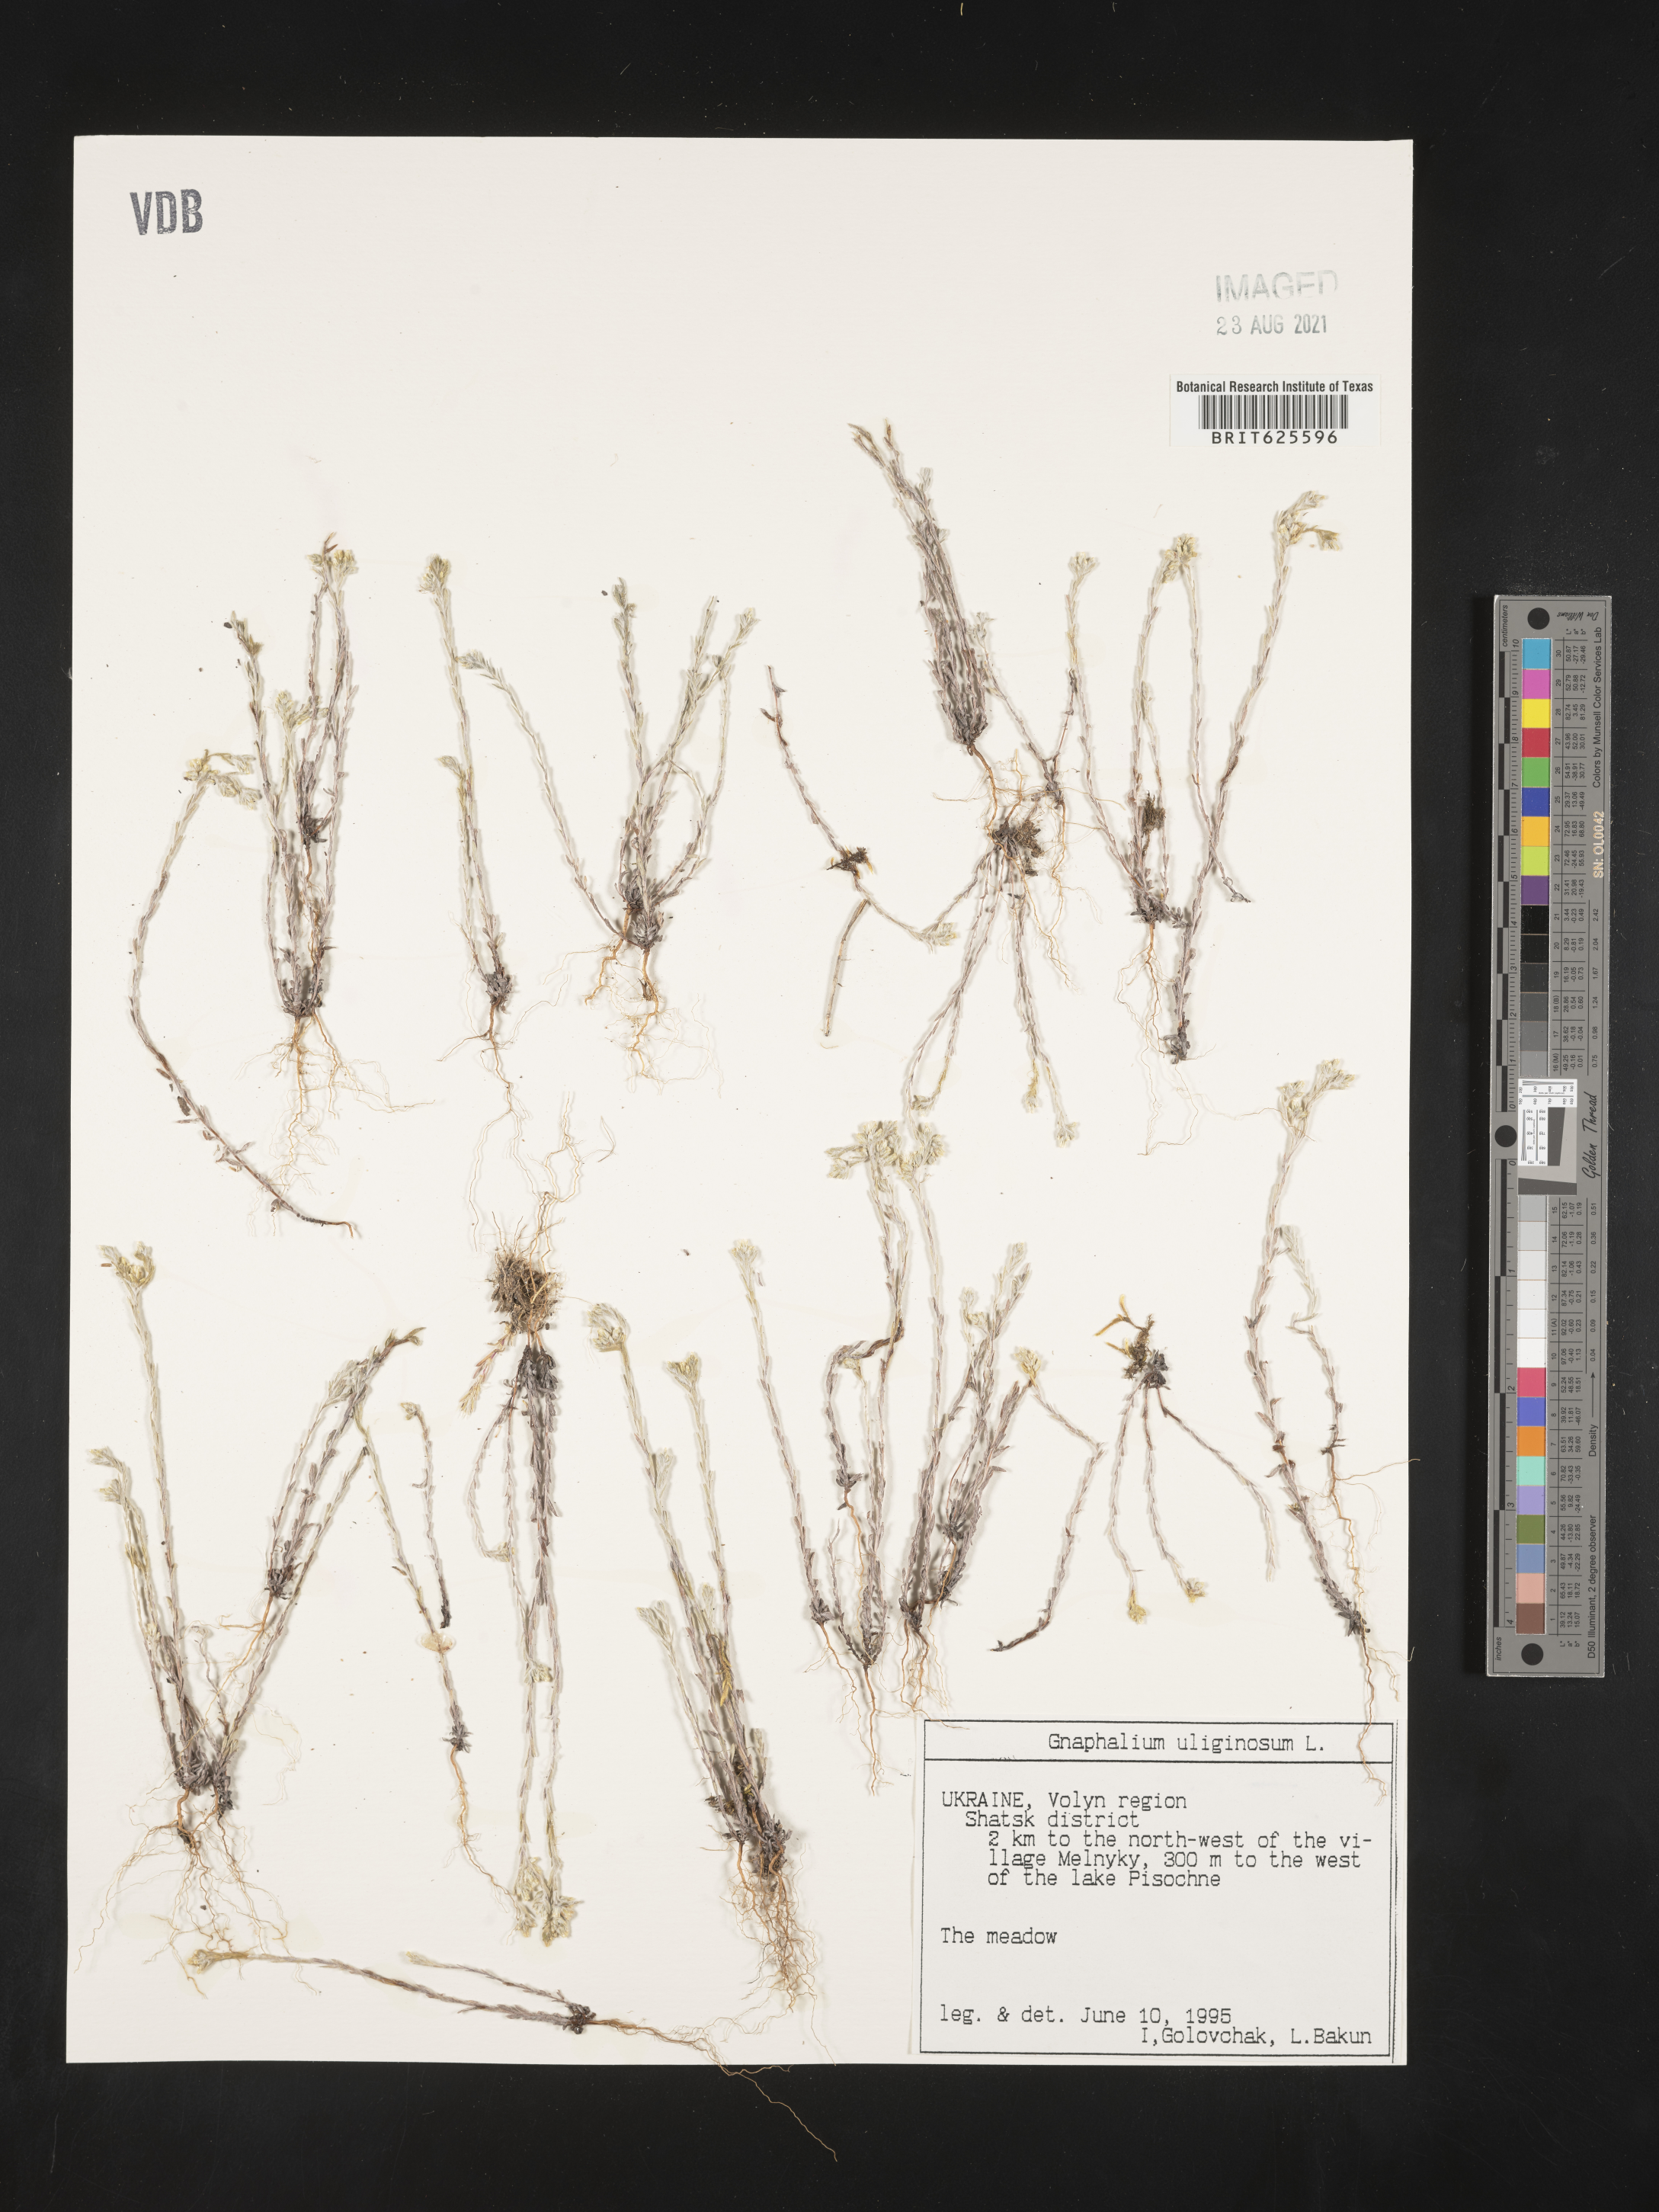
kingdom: Plantae
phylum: Tracheophyta
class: Magnoliopsida
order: Asterales
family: Asteraceae
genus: Gnaphalium
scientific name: Gnaphalium uliginosum
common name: Marsh cudweed
